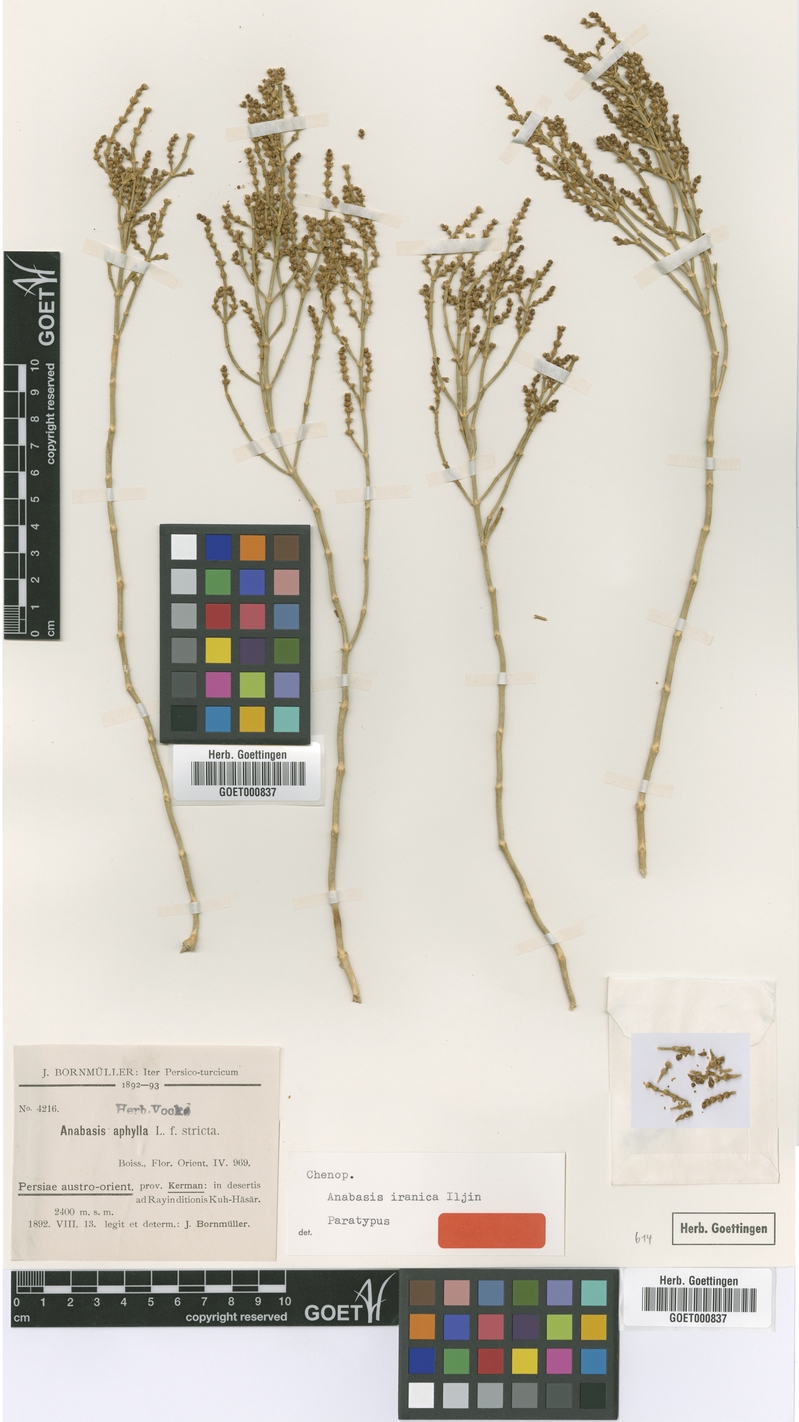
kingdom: Plantae
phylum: Tracheophyta
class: Magnoliopsida
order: Caryophyllales
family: Amaranthaceae
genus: Anabasis
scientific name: Anabasis haussknechtii
